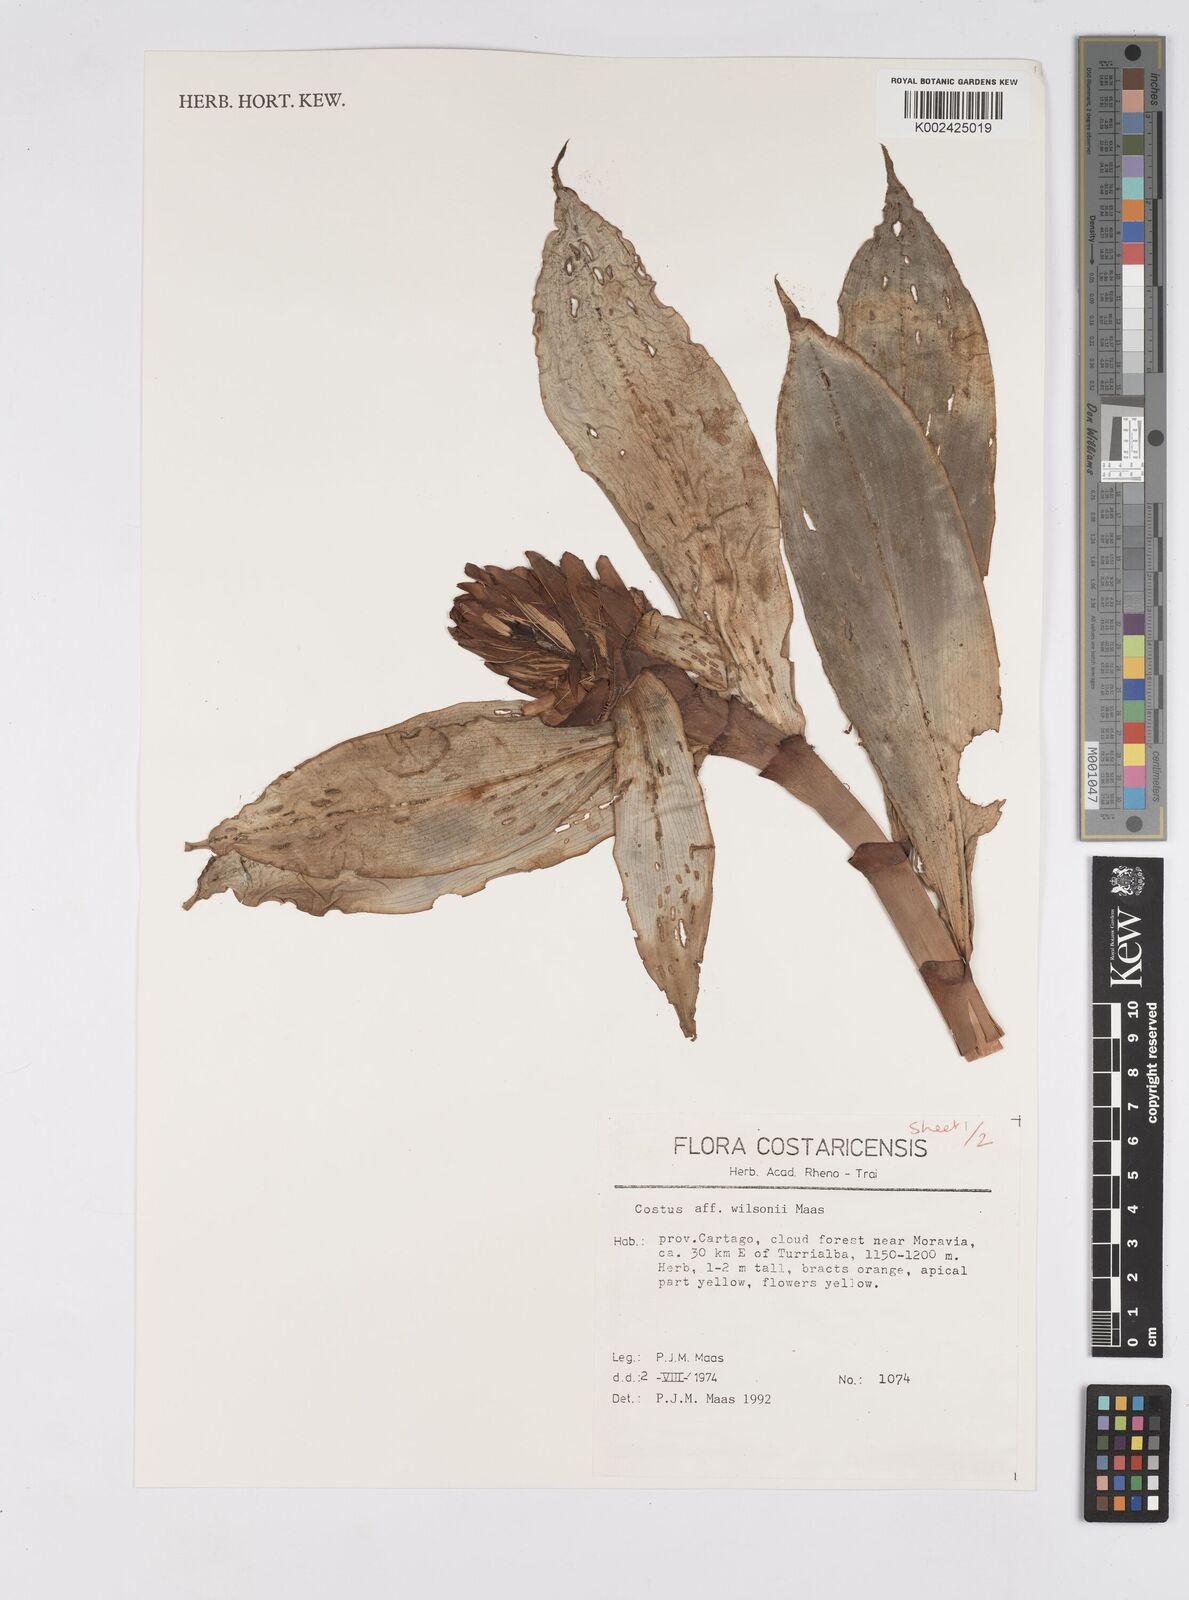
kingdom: Plantae
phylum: Tracheophyta
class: Liliopsida
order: Zingiberales
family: Costaceae
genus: Costus
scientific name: Costus wilsonii
